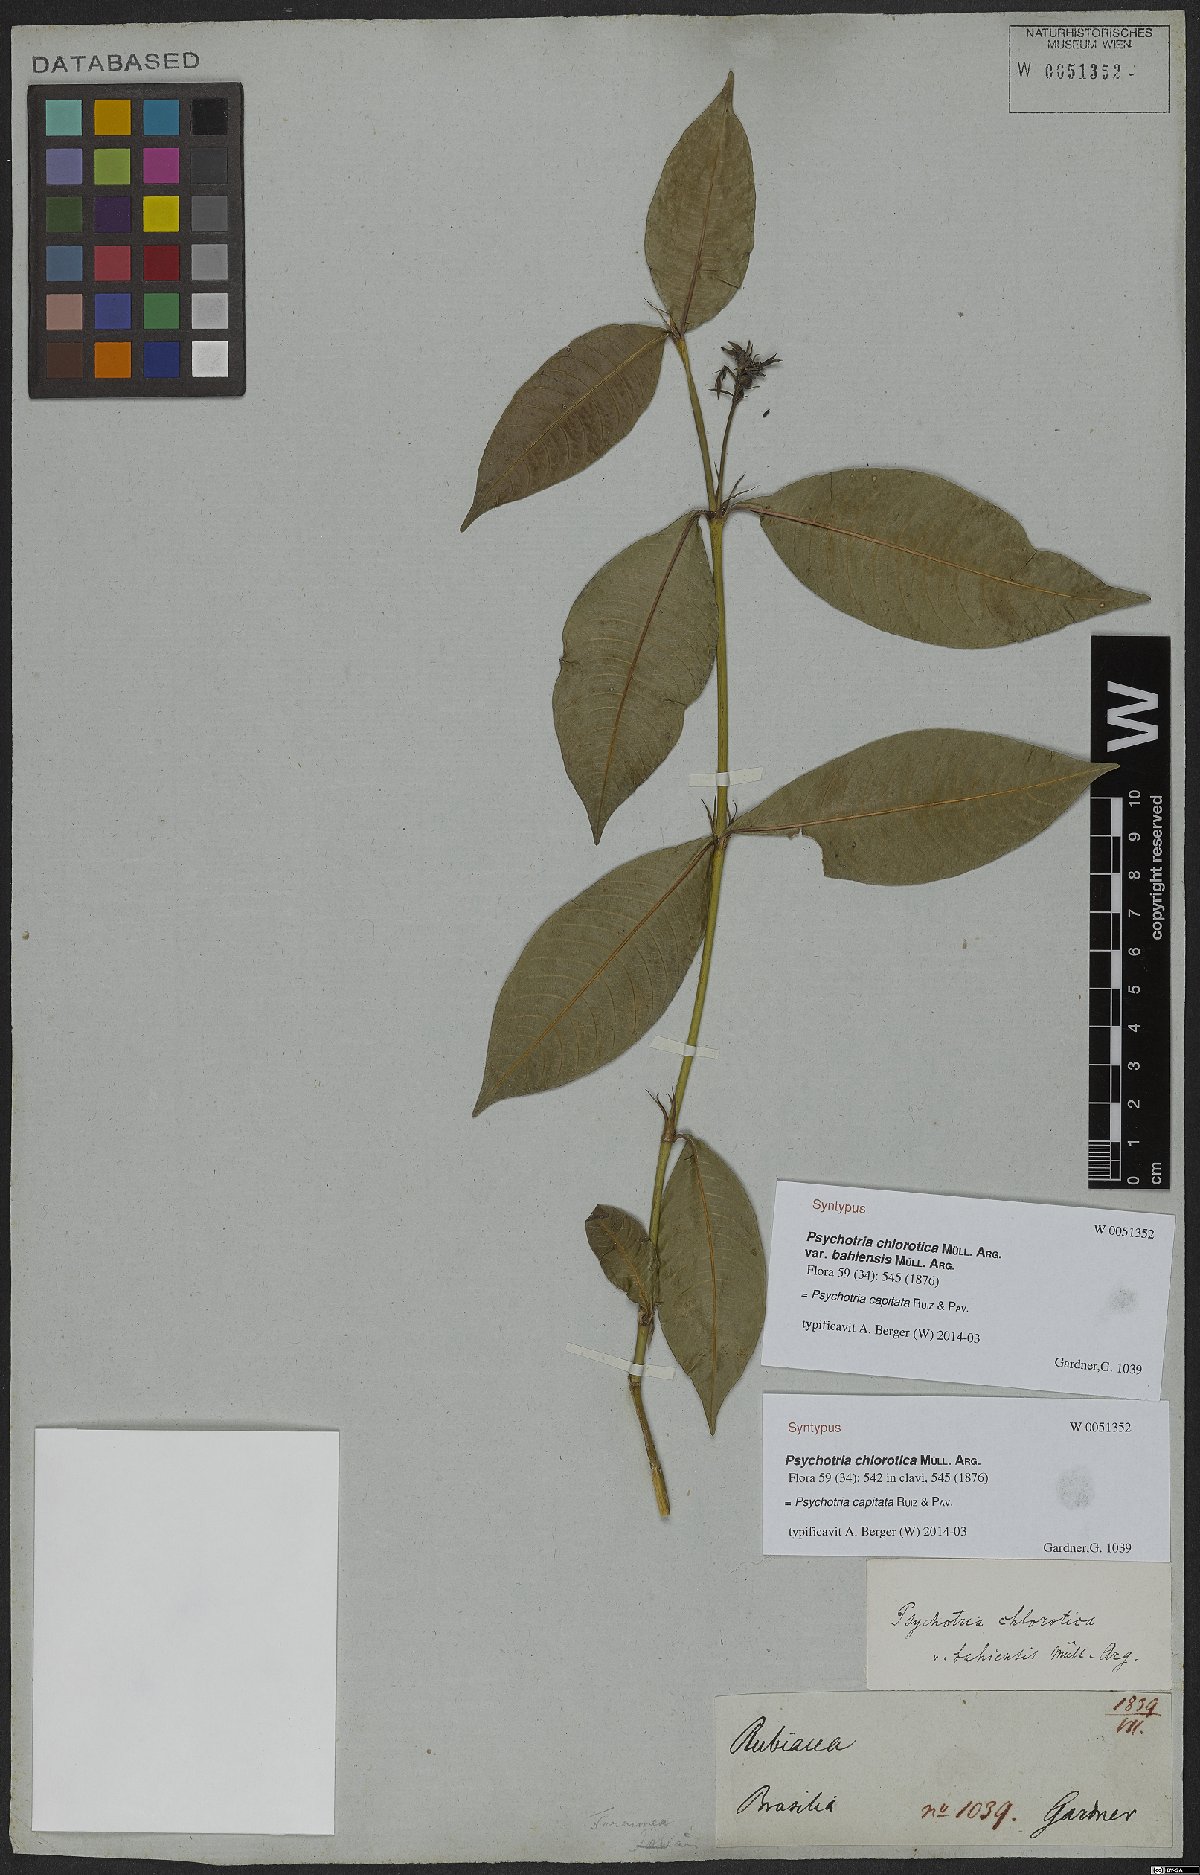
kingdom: Plantae
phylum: Tracheophyta
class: Magnoliopsida
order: Gentianales
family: Rubiaceae
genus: Palicourea
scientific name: Palicourea violacea
